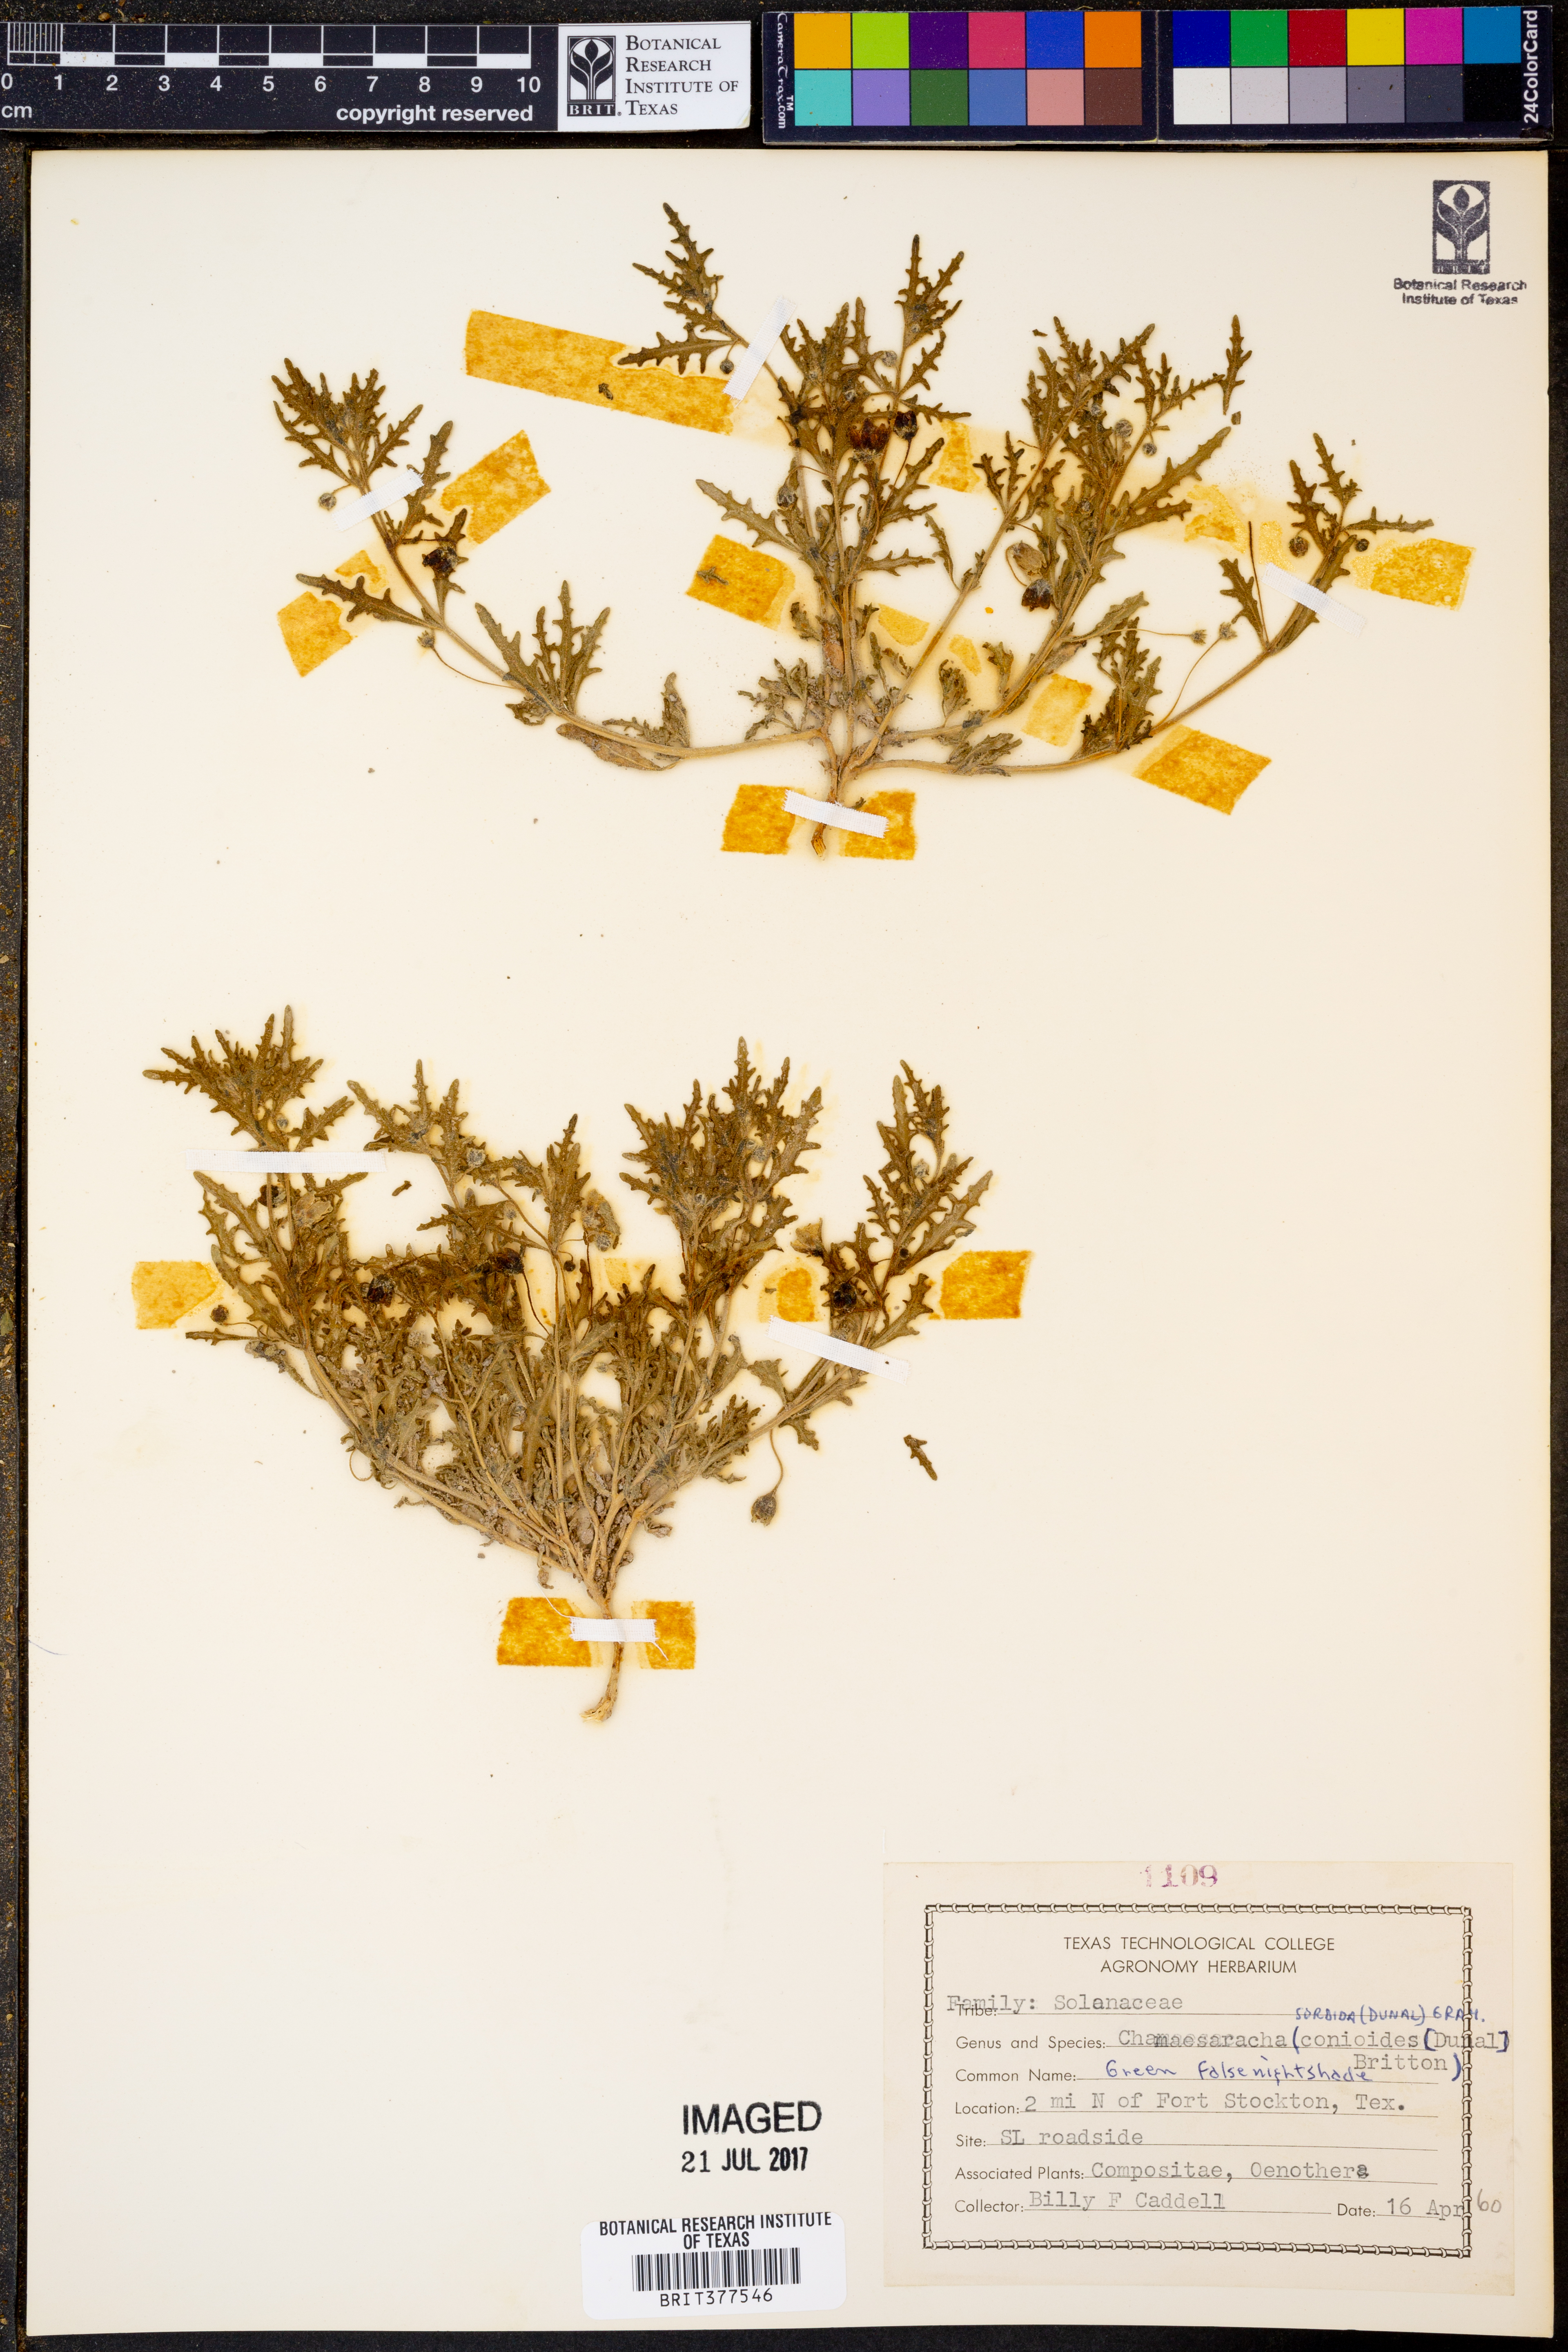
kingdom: Plantae
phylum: Tracheophyta
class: Magnoliopsida
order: Solanales
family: Solanaceae
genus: Chamaesaracha
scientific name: Chamaesaracha sordida
